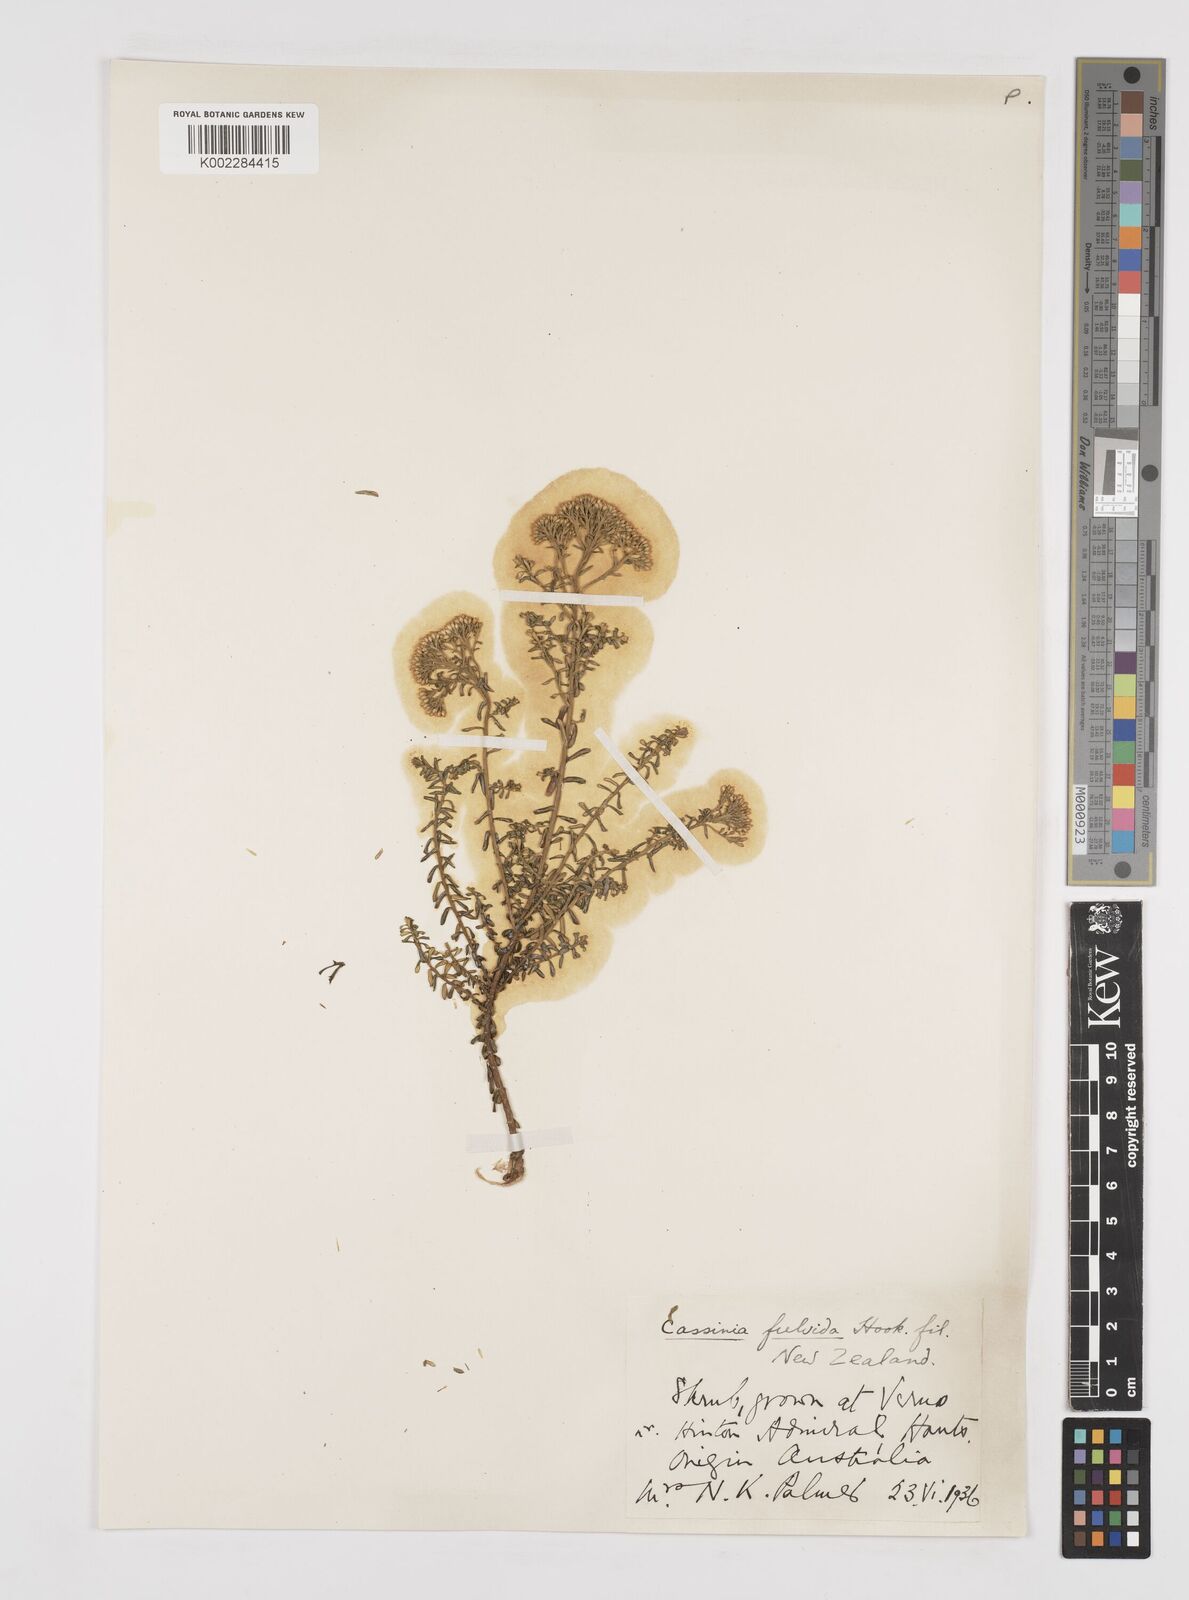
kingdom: Plantae
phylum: Tracheophyta
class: Magnoliopsida
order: Asterales
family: Asteraceae
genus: Ozothamnus
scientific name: Ozothamnus leptophyllus
